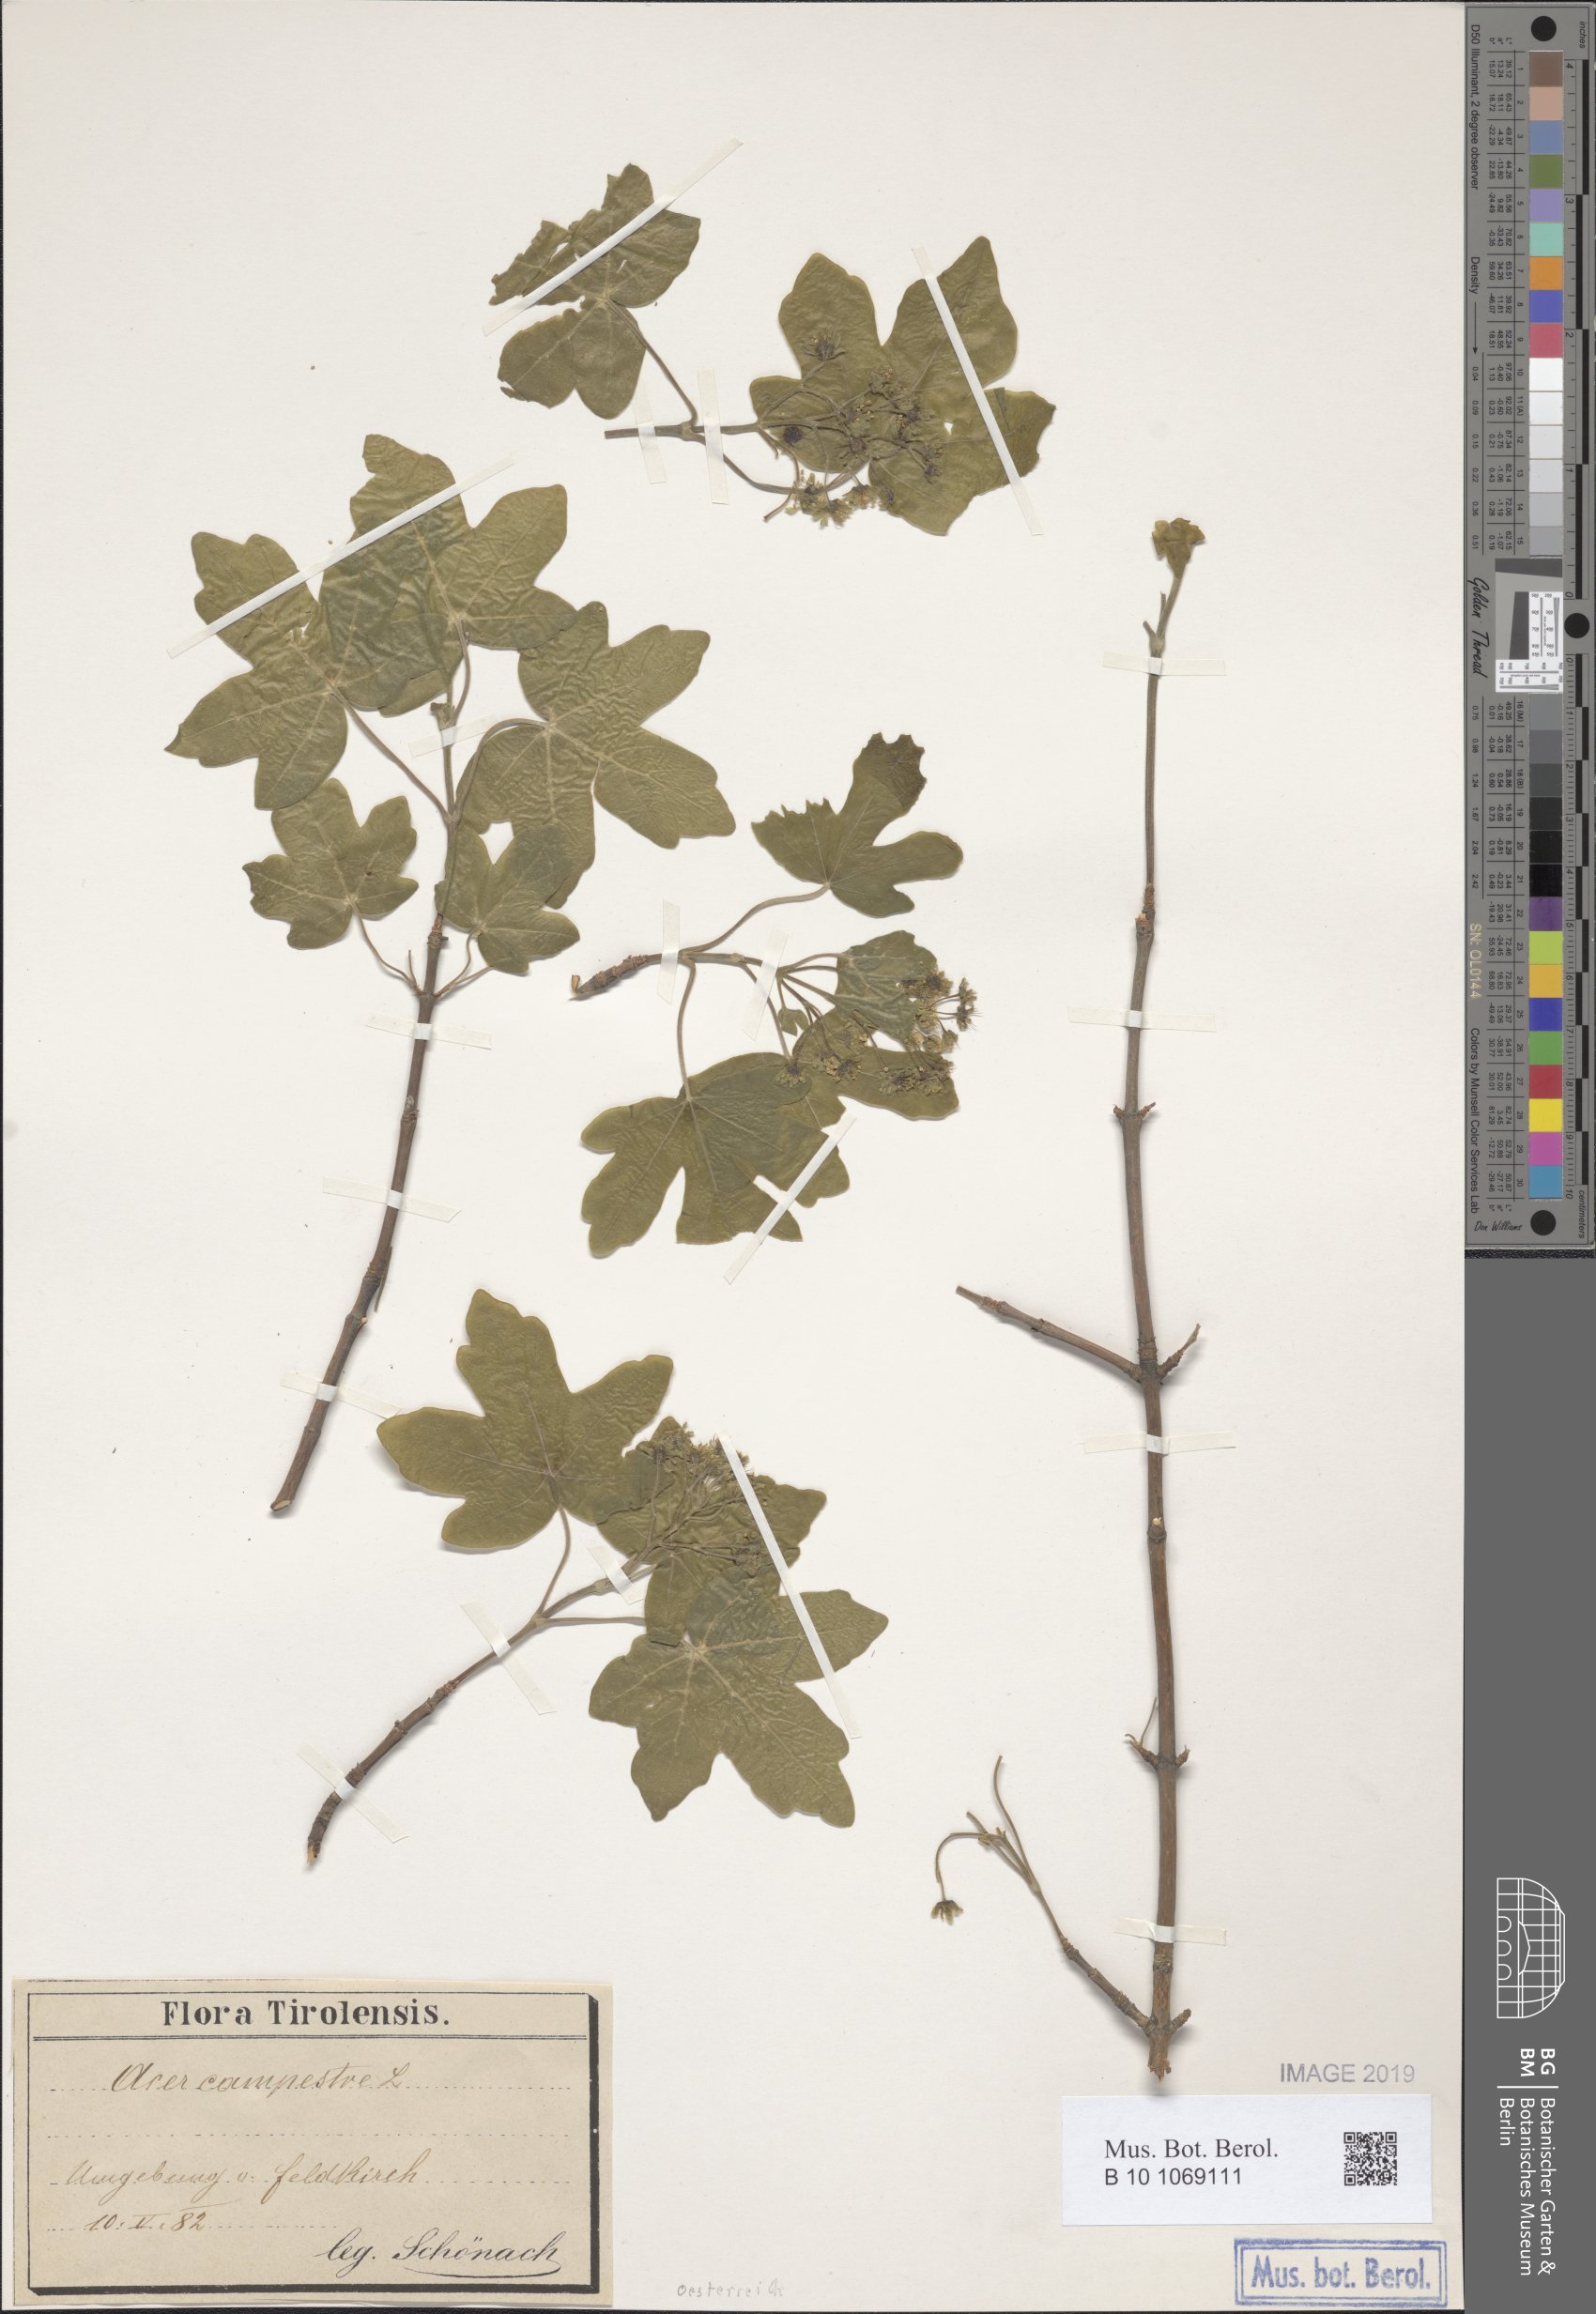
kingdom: Plantae
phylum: Tracheophyta
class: Magnoliopsida
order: Sapindales
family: Sapindaceae
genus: Acer
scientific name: Acer campestre
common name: Field maple
